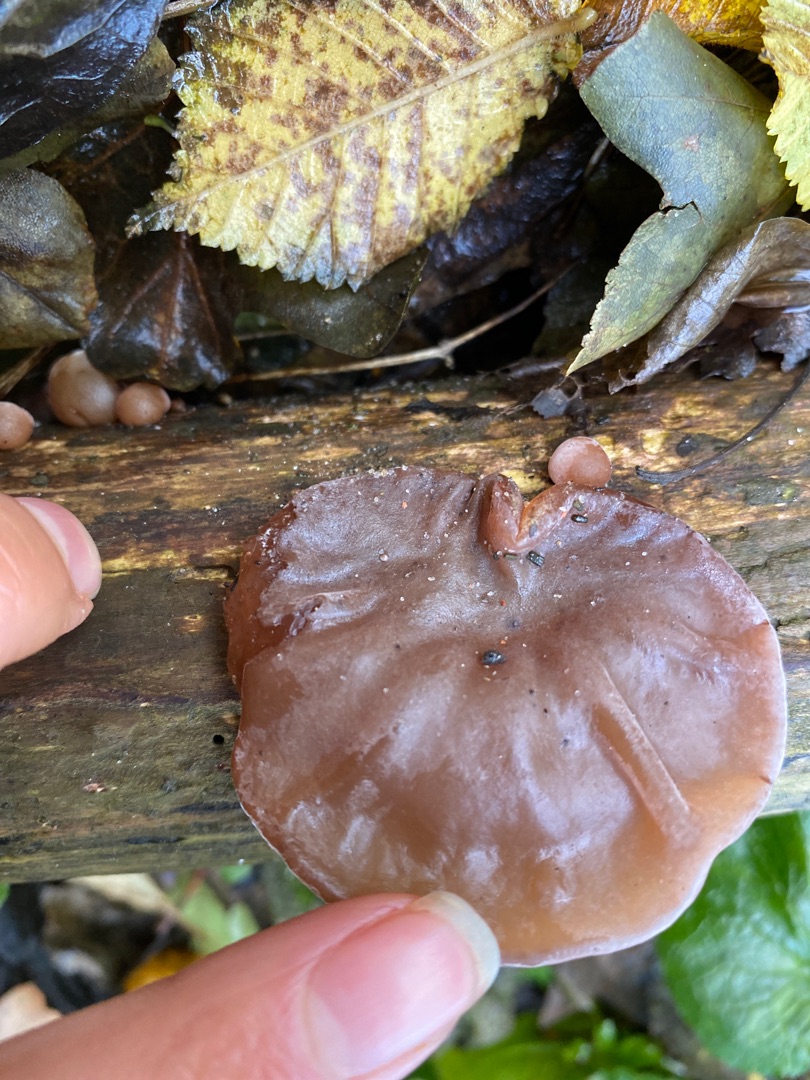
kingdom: Fungi
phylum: Basidiomycota
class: Agaricomycetes
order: Auriculariales
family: Auriculariaceae
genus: Auricularia
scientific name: Auricularia auricula-judae
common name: Almindelig judasøre
